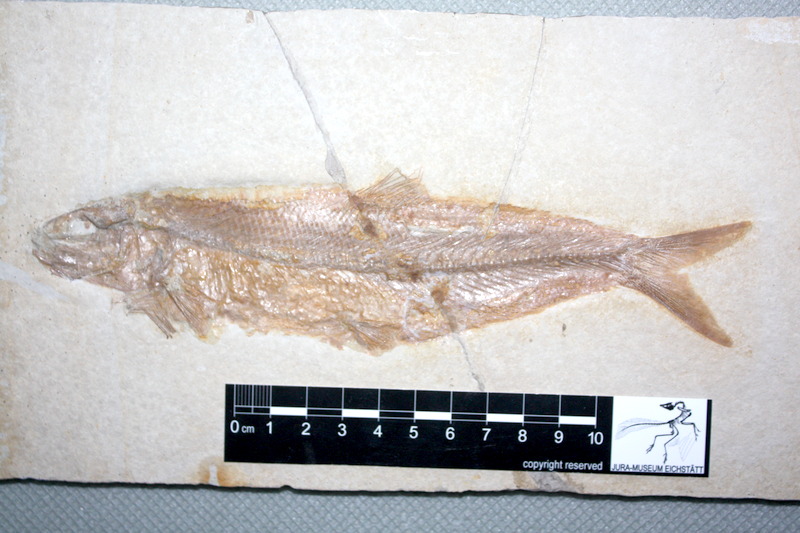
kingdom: Animalia
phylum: Chordata
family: Ascalaboidae
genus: Tharsis
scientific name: Tharsis dubius
